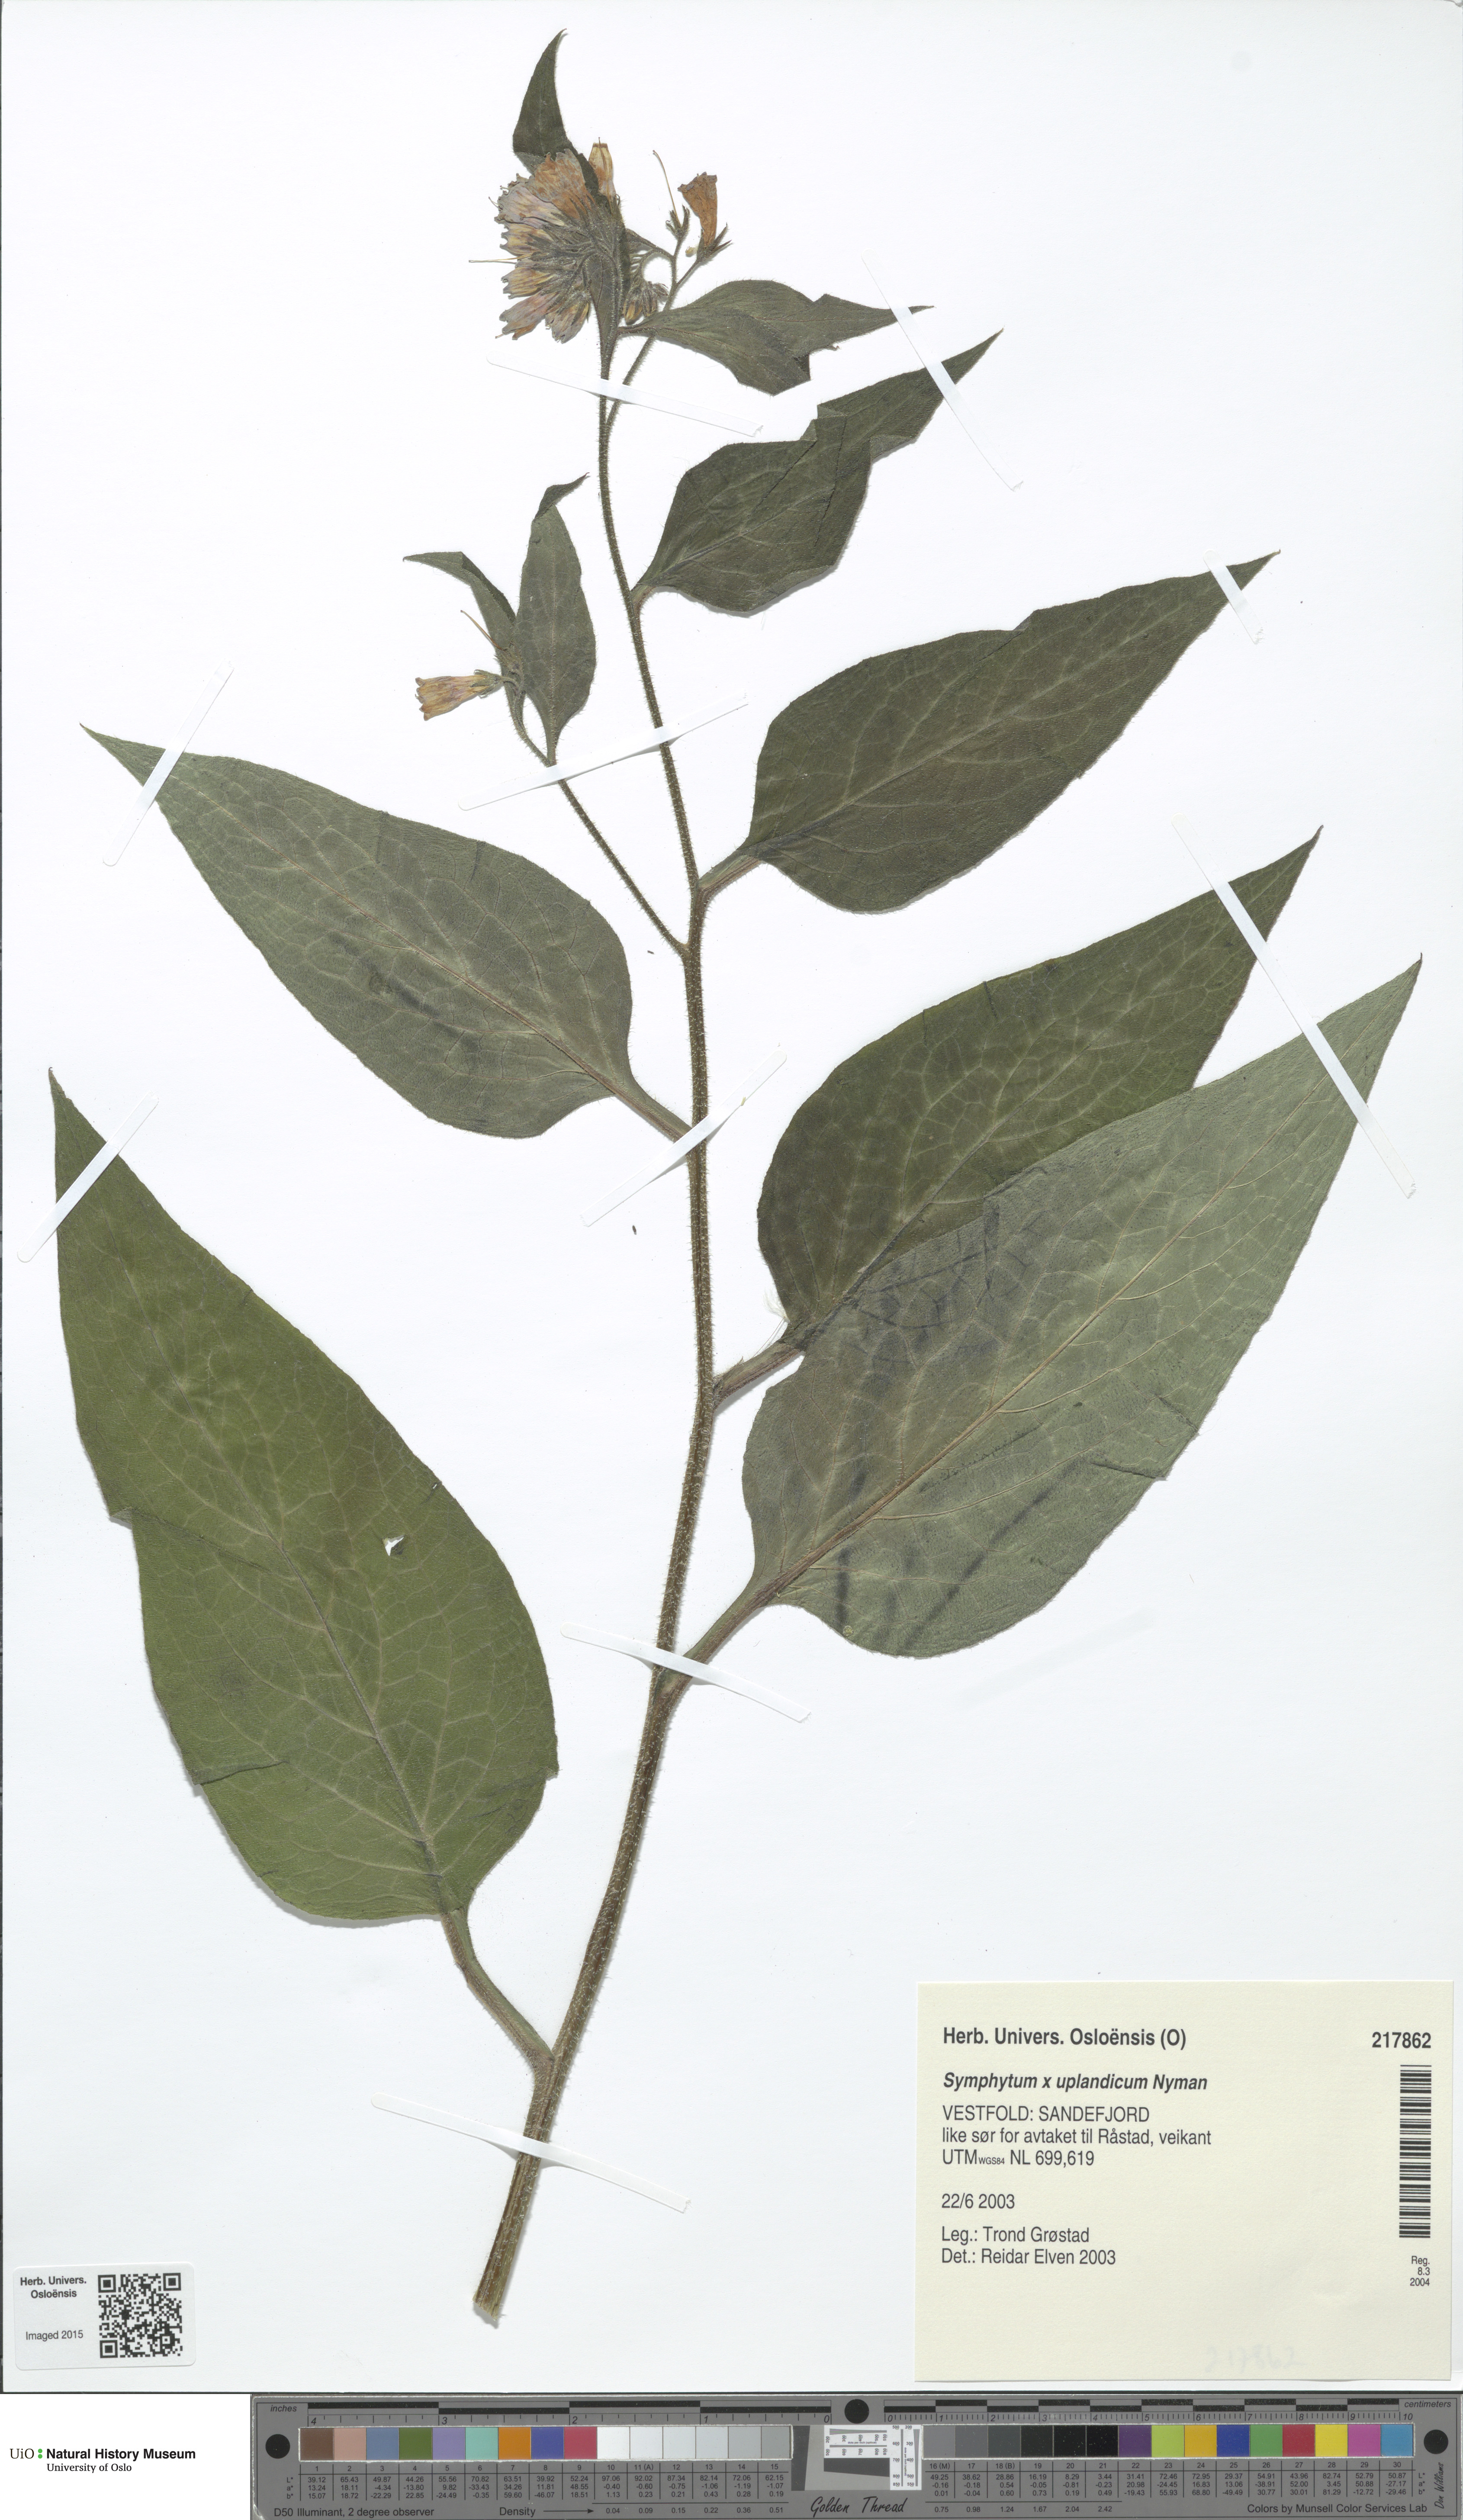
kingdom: Plantae
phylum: Tracheophyta
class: Magnoliopsida
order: Boraginales
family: Boraginaceae
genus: Symphytum
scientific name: Symphytum asperum
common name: Prickly comfrey
